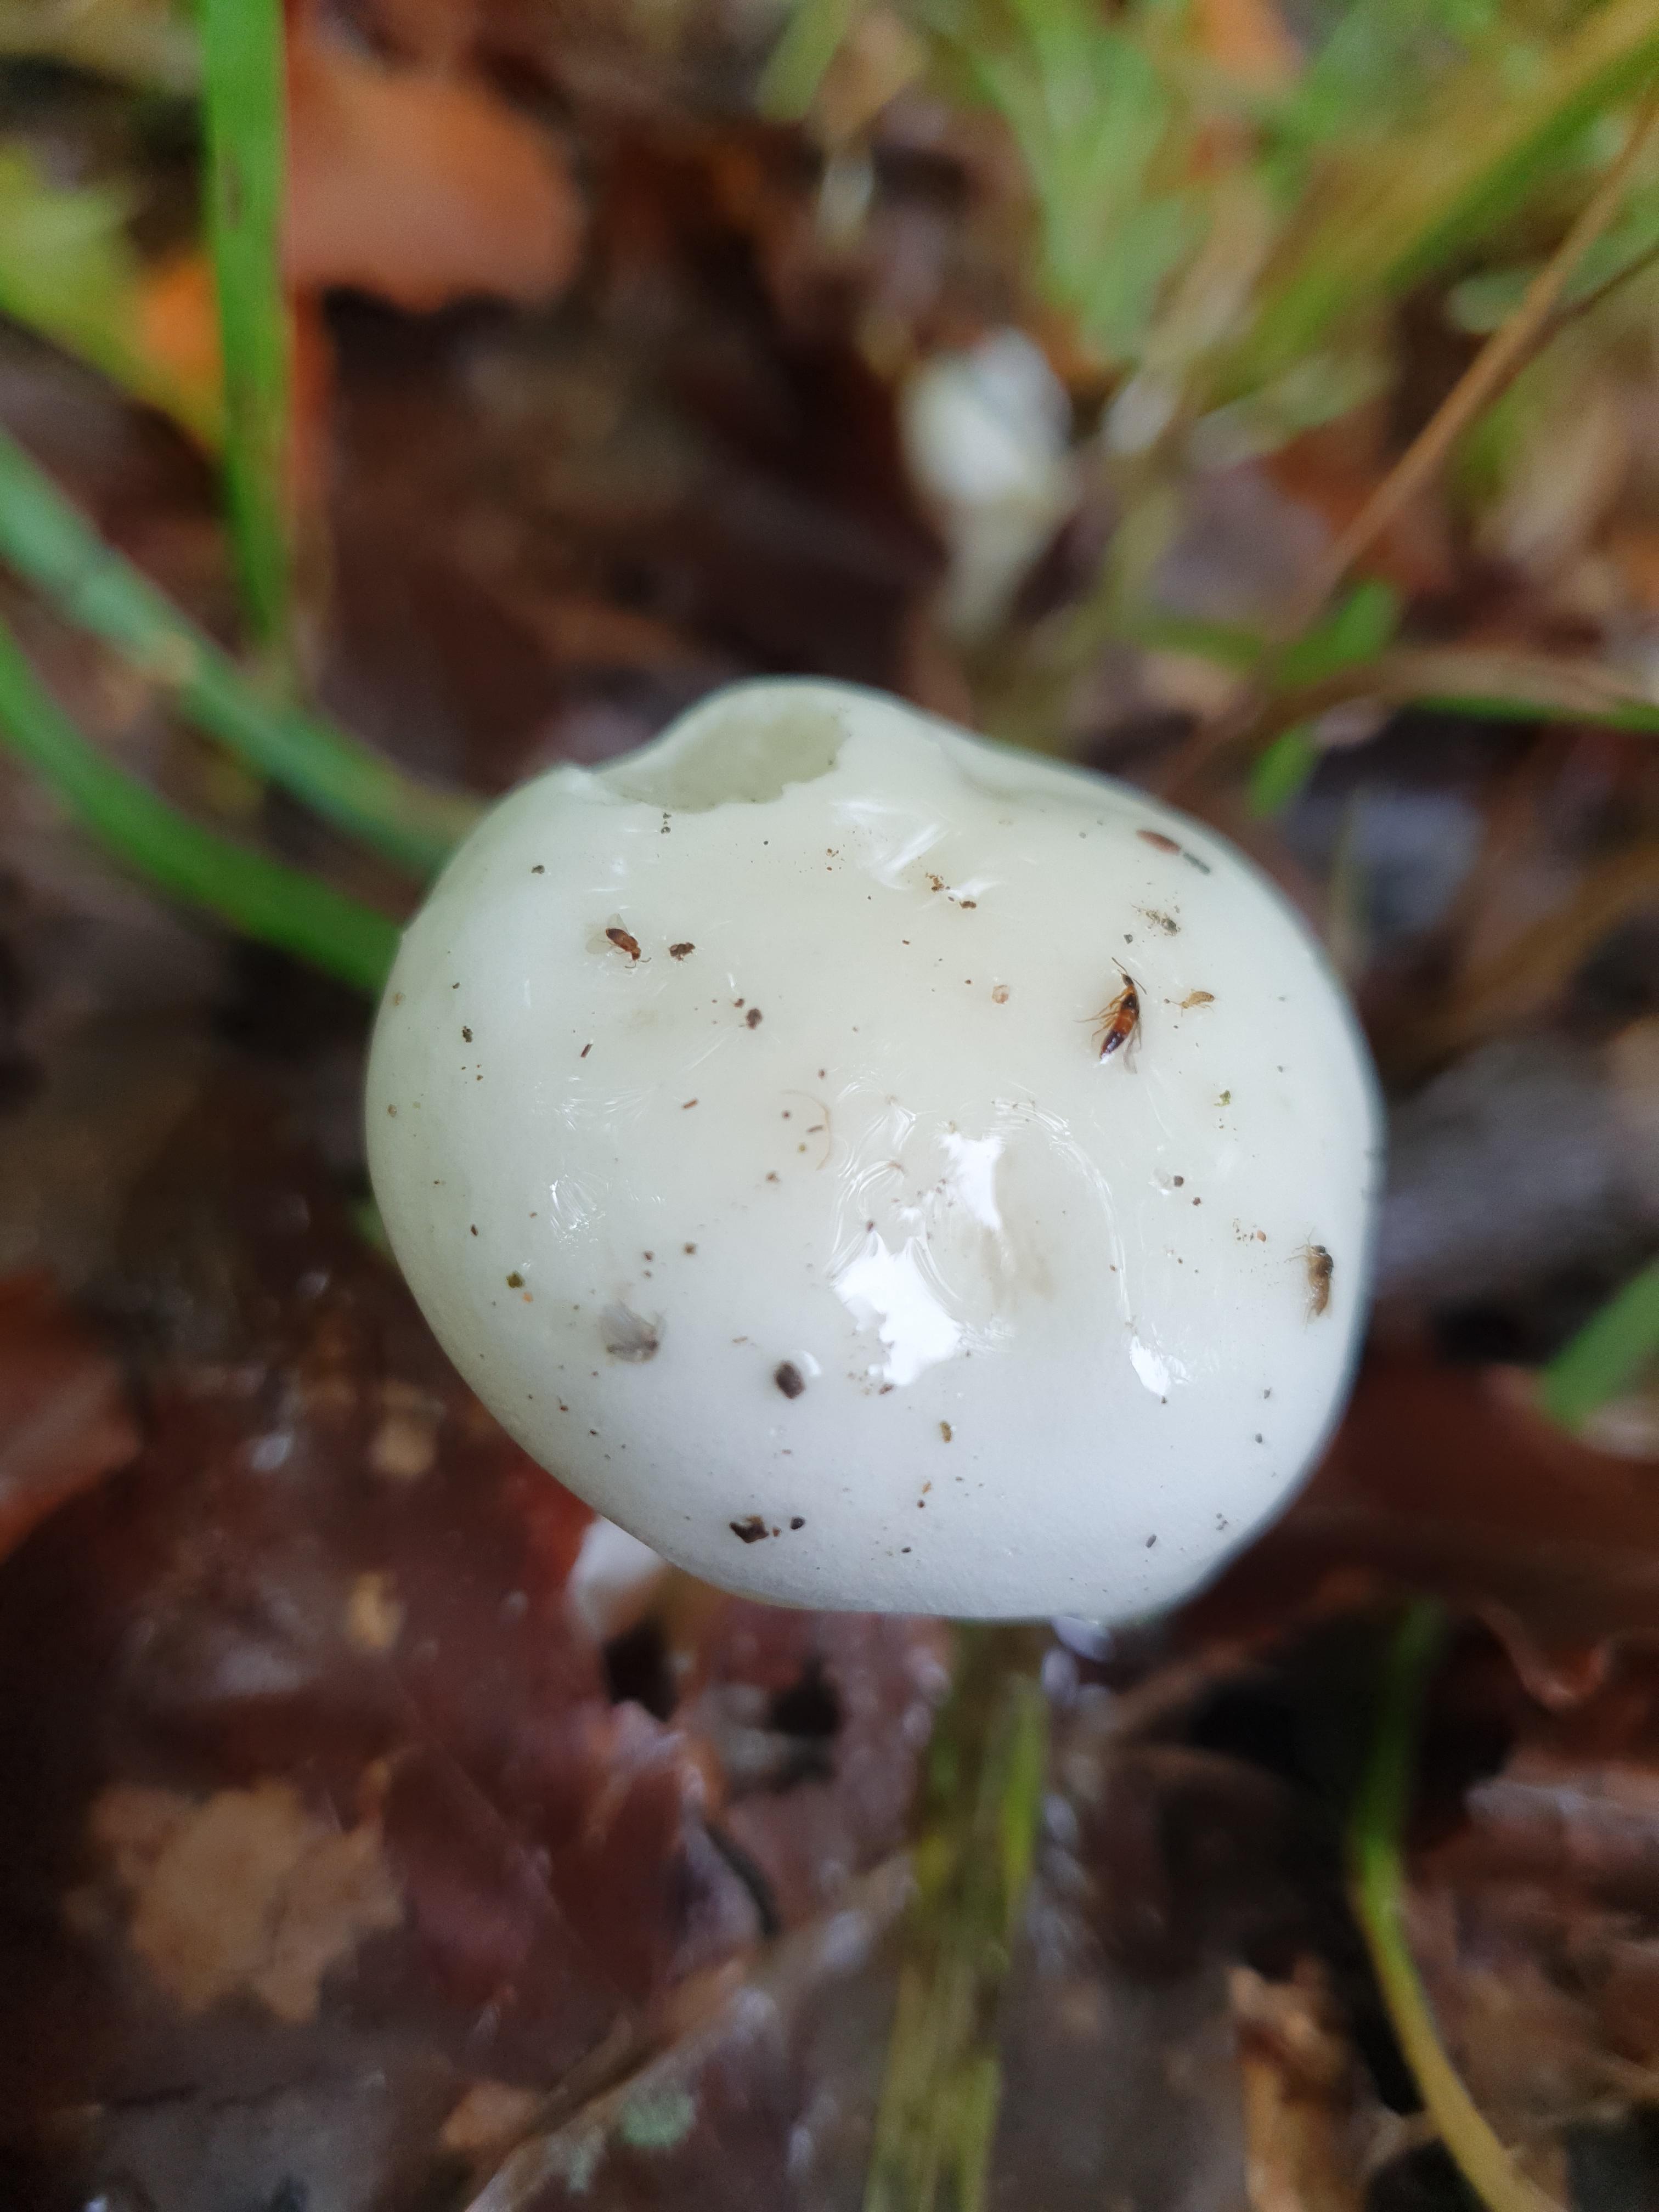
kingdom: Fungi
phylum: Basidiomycota
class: Agaricomycetes
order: Agaricales
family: Hygrophoraceae
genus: Hygrophorus
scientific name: Hygrophorus
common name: sneglehat
